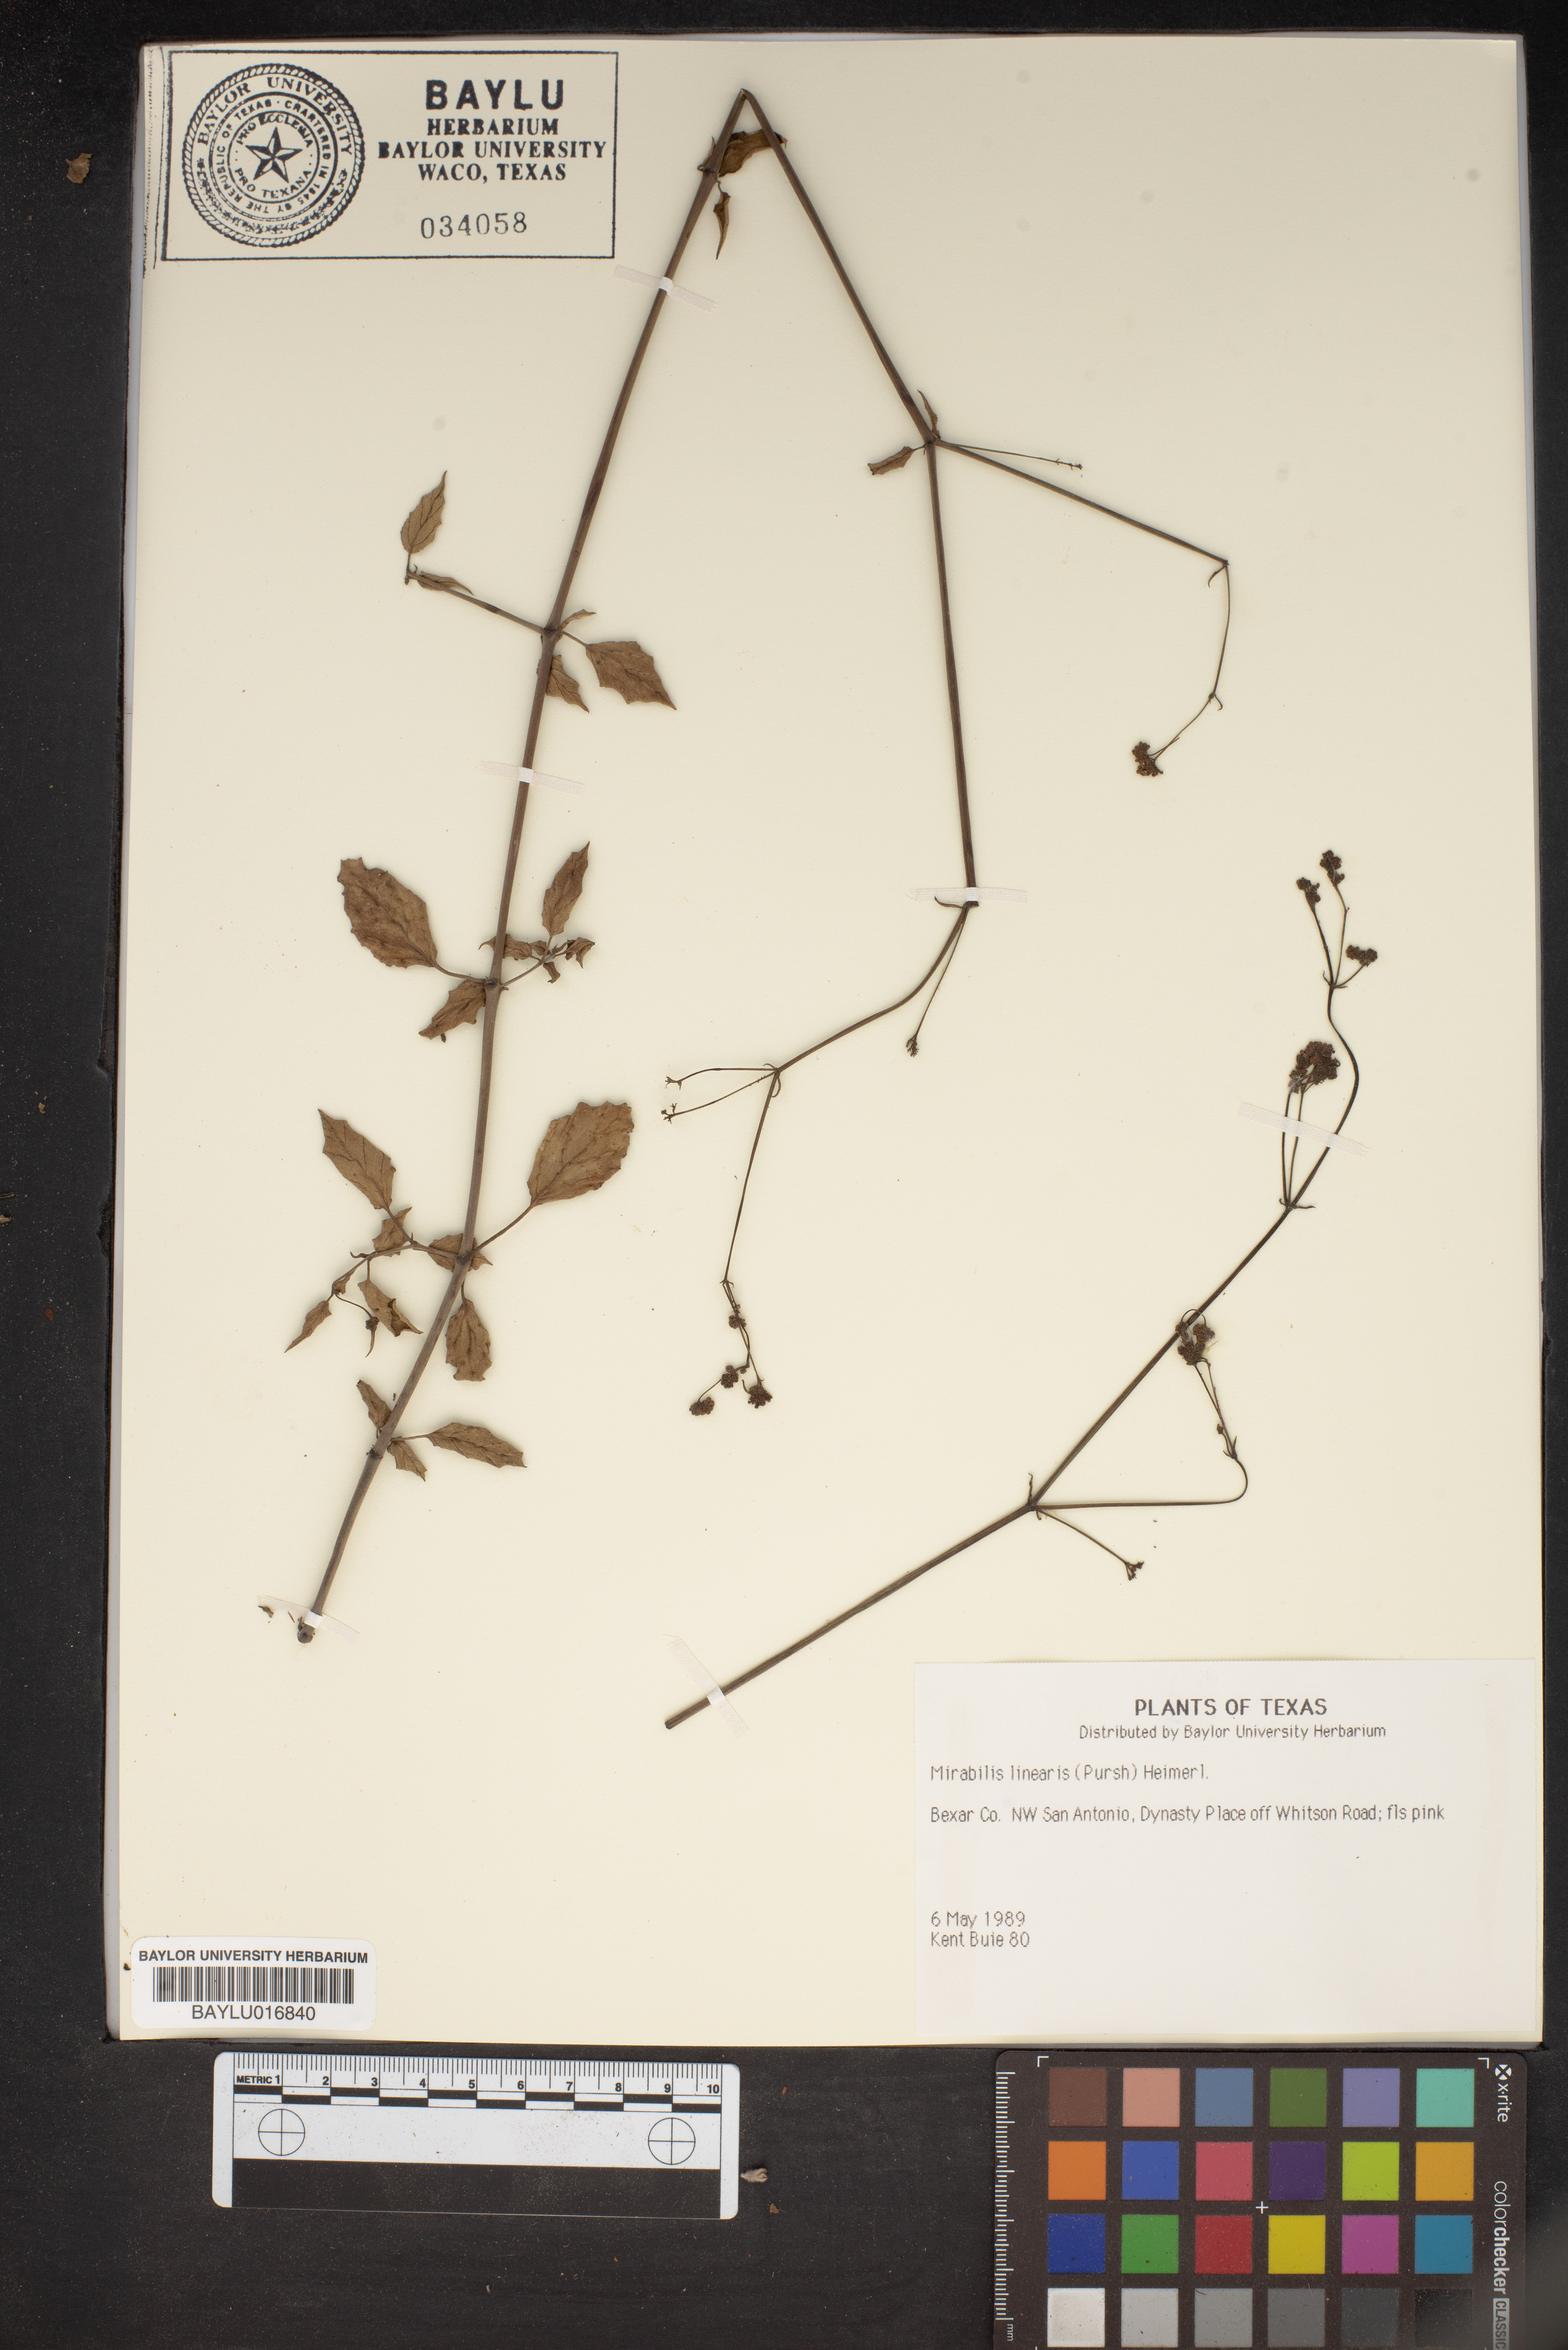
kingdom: Plantae
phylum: Tracheophyta
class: Magnoliopsida
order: Caryophyllales
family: Nyctaginaceae
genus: Mirabilis
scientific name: Mirabilis linearis
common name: Linear-leaved four-o'clock
